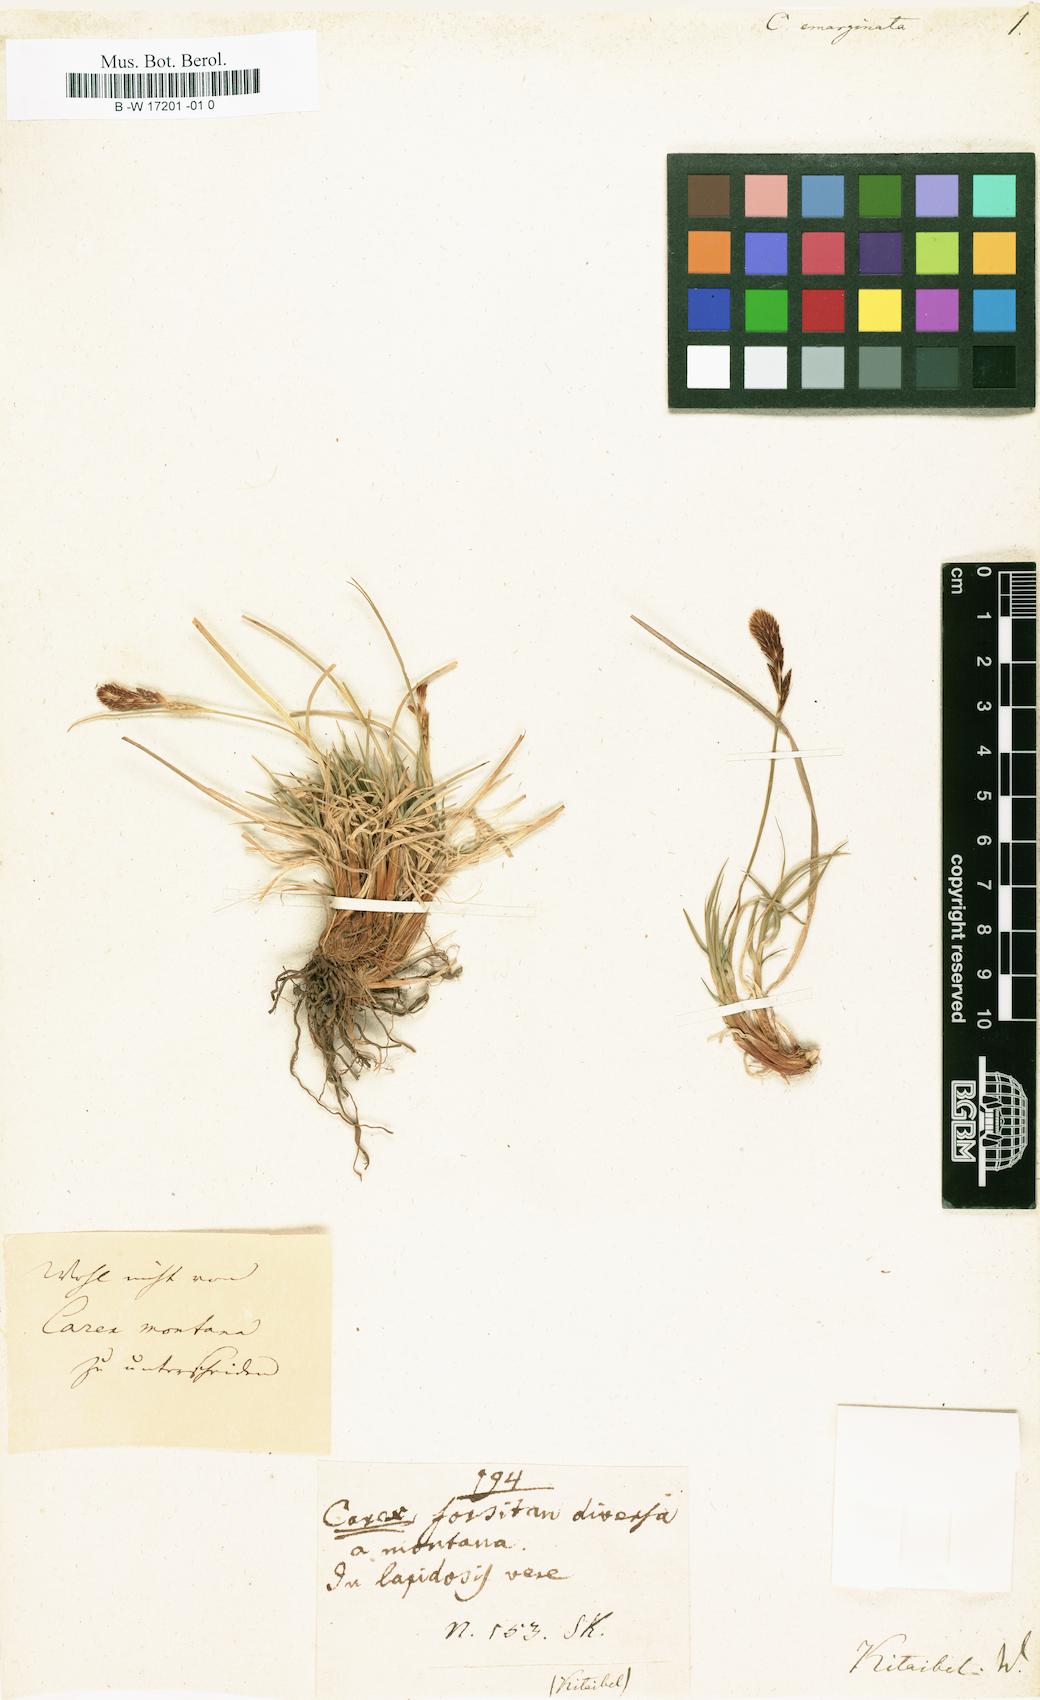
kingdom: Plantae
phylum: Tracheophyta
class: Liliopsida
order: Poales
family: Cyperaceae
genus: Carex
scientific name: Carex montana
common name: Soft-leaved sedge
